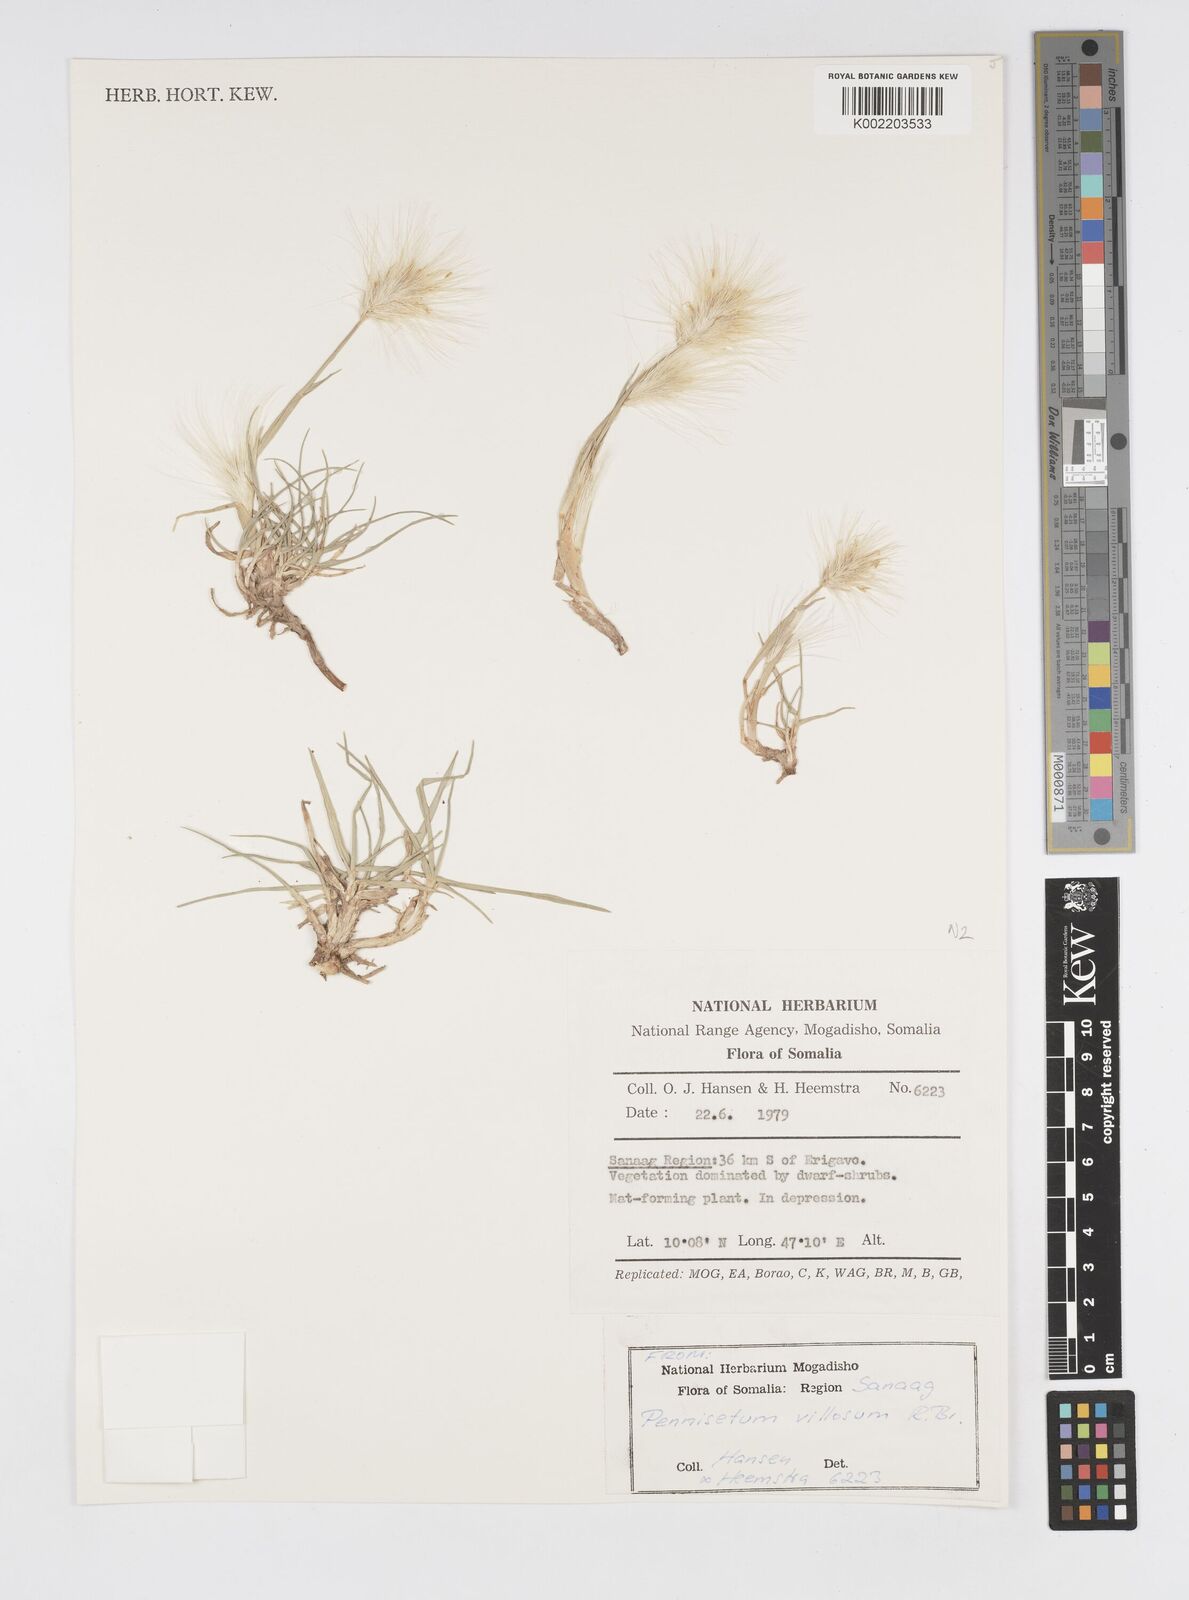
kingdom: Plantae
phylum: Tracheophyta
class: Liliopsida
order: Poales
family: Poaceae
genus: Cenchrus
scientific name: Cenchrus longisetus
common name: Feathertop
